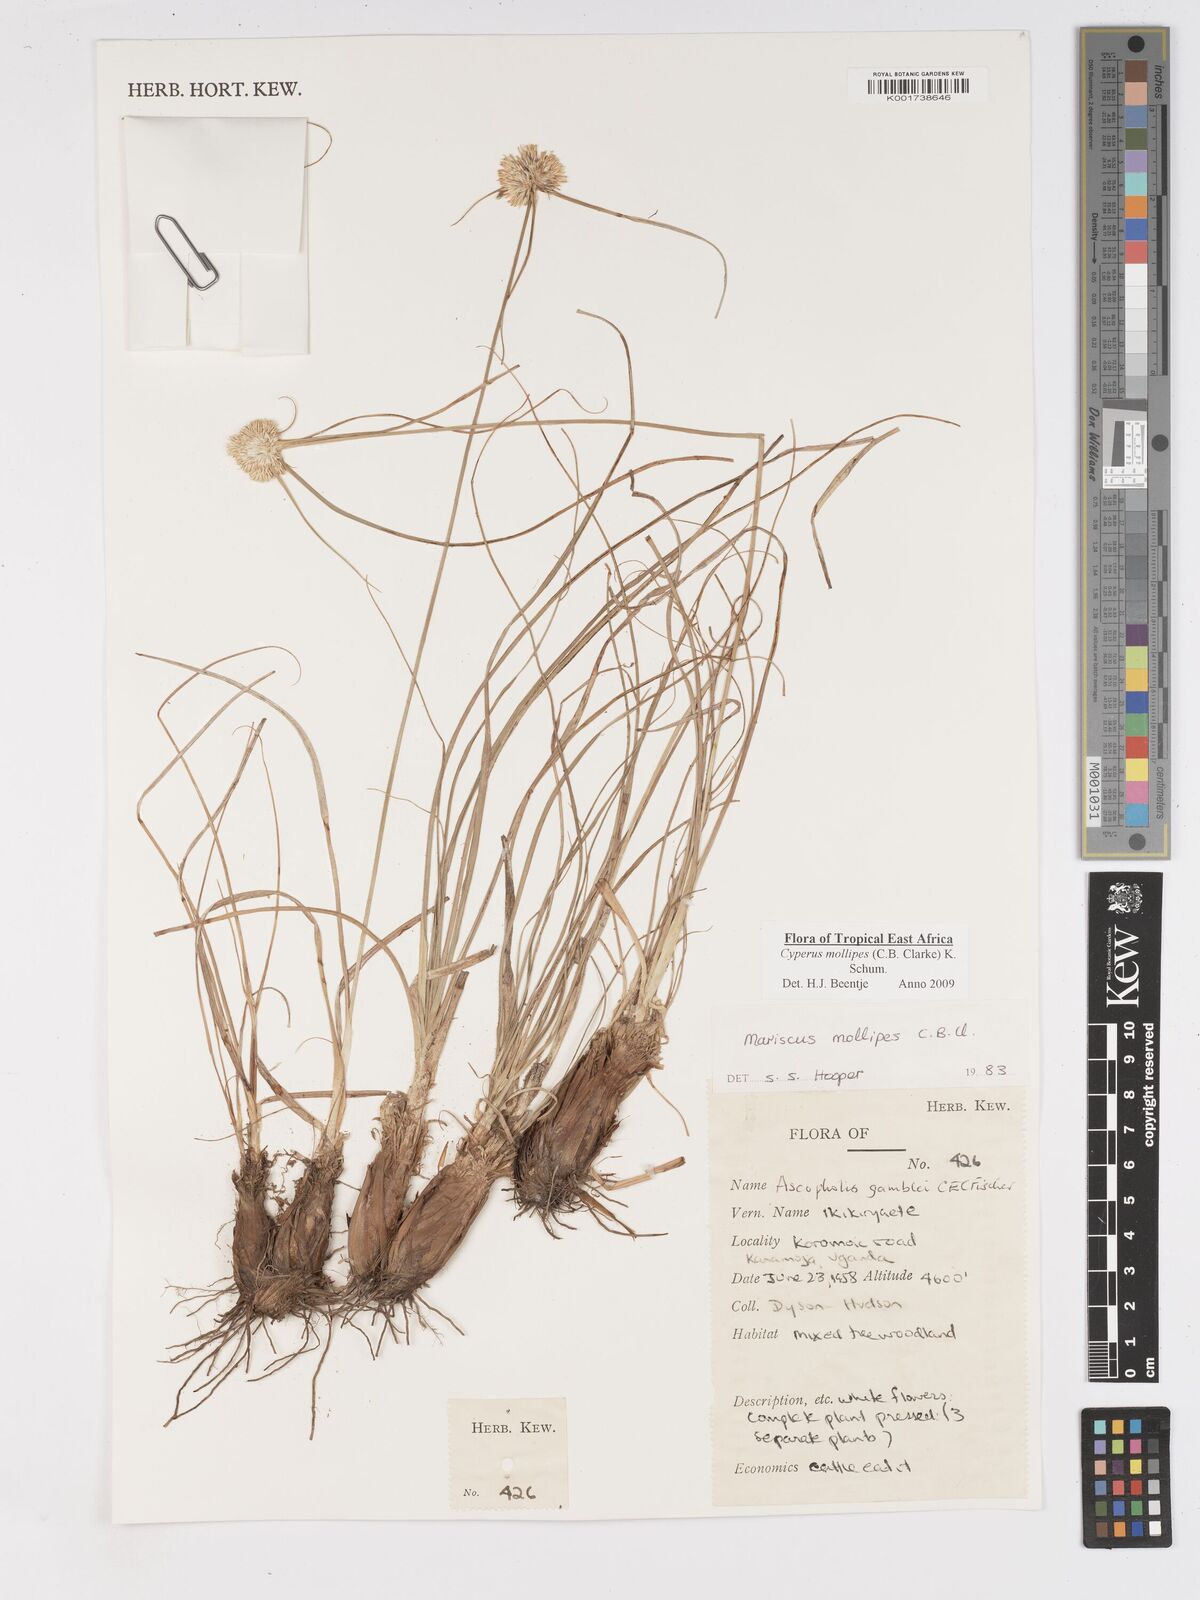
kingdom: Plantae
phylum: Tracheophyta
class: Liliopsida
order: Poales
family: Cyperaceae
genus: Cyperus
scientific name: Cyperus mollipes
